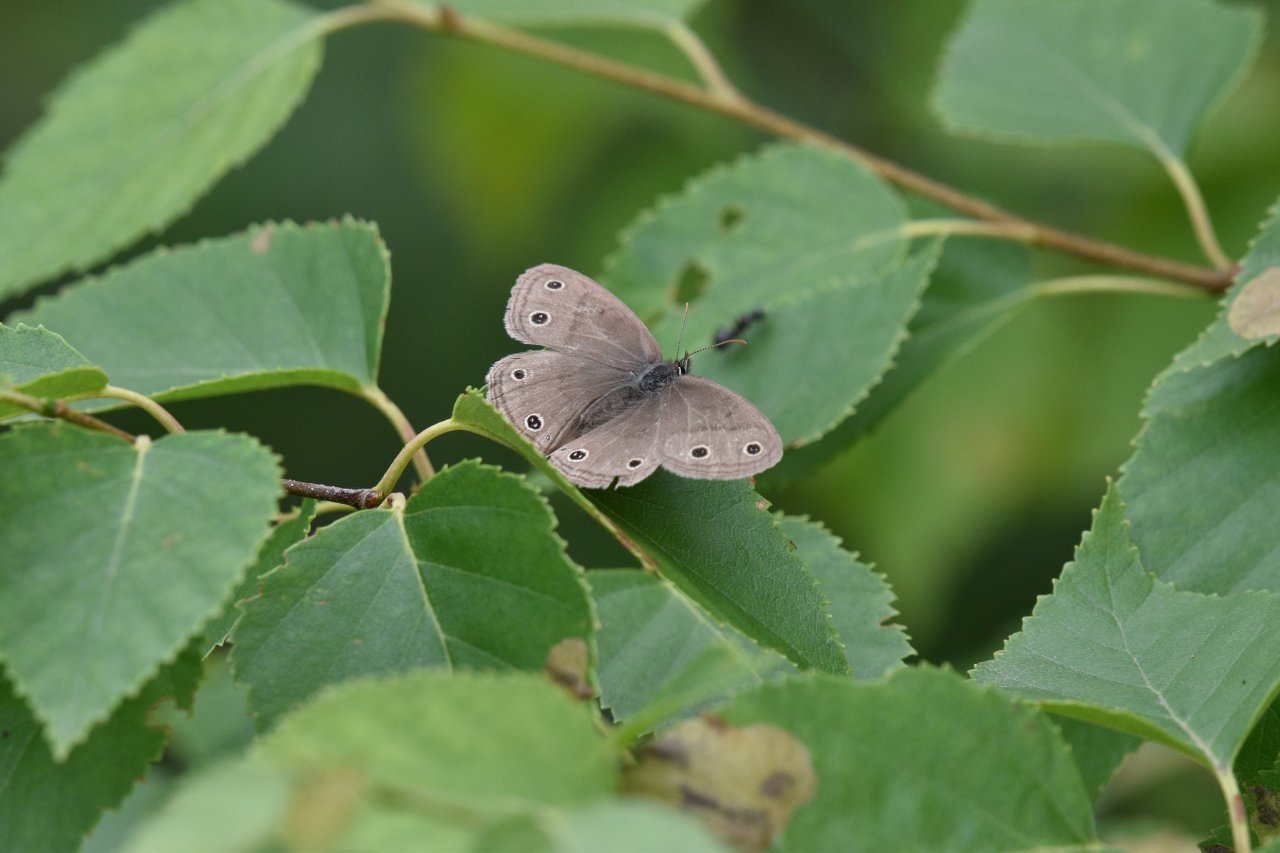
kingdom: Animalia
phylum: Arthropoda
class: Insecta
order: Lepidoptera
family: Nymphalidae
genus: Euptychia
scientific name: Euptychia cymela
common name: Little Wood Satyr
